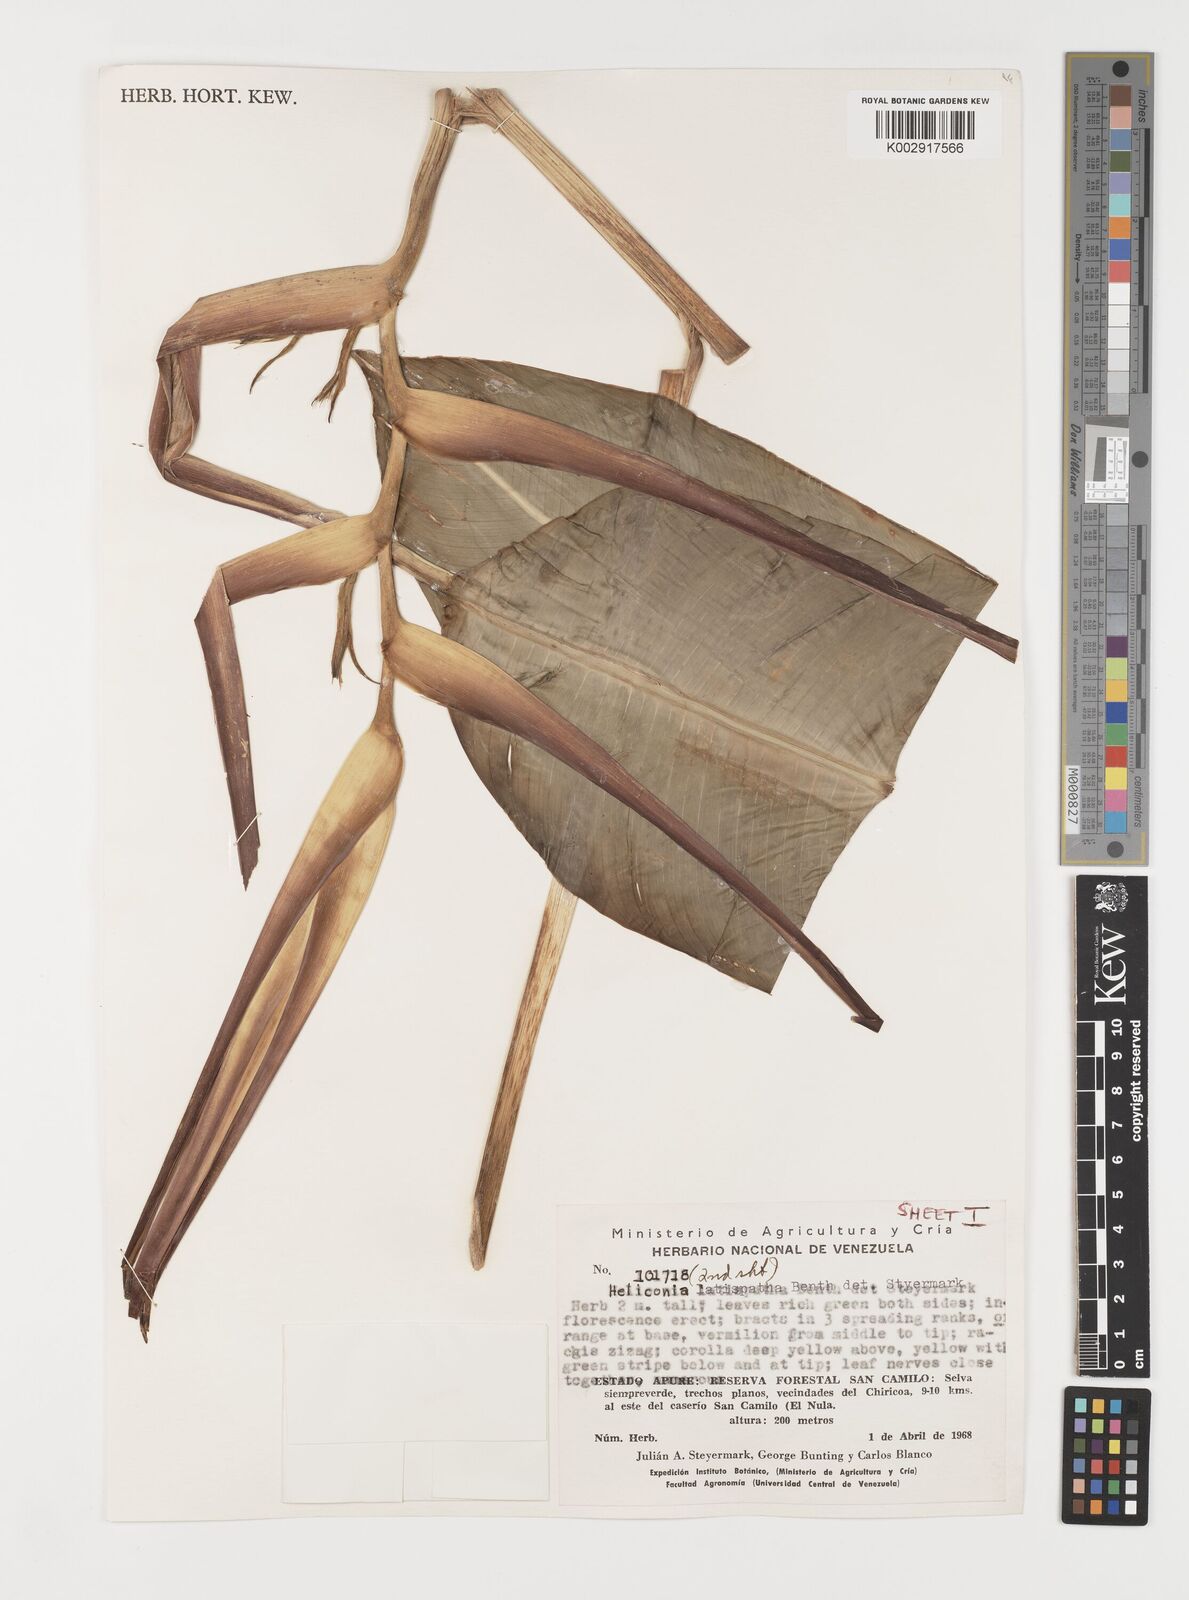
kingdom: Plantae
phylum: Tracheophyta
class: Liliopsida
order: Zingiberales
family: Heliconiaceae
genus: Heliconia
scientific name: Heliconia latispatha
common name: Expanded lobsterclaw
